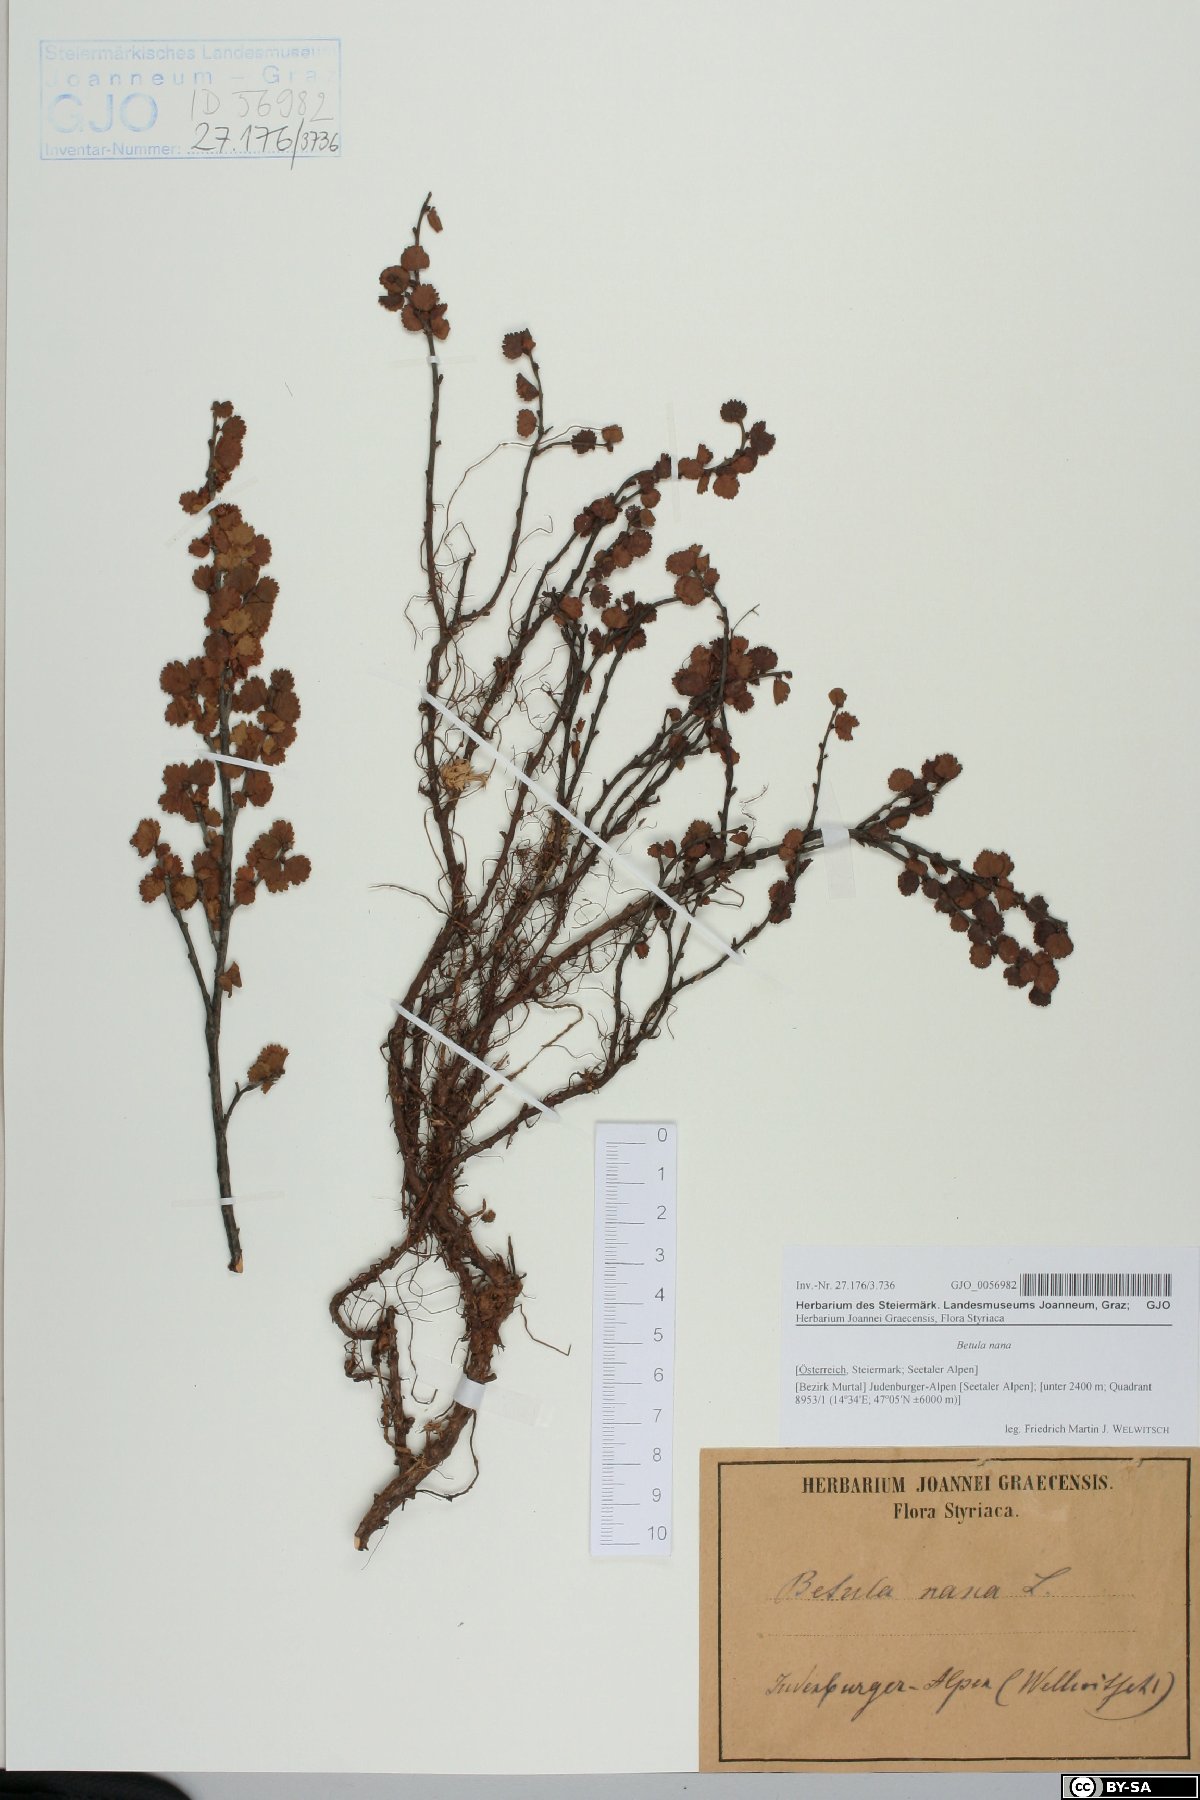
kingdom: Plantae
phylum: Tracheophyta
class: Magnoliopsida
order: Fagales
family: Betulaceae
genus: Betula
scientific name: Betula nana
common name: Arctic dwarf birch
